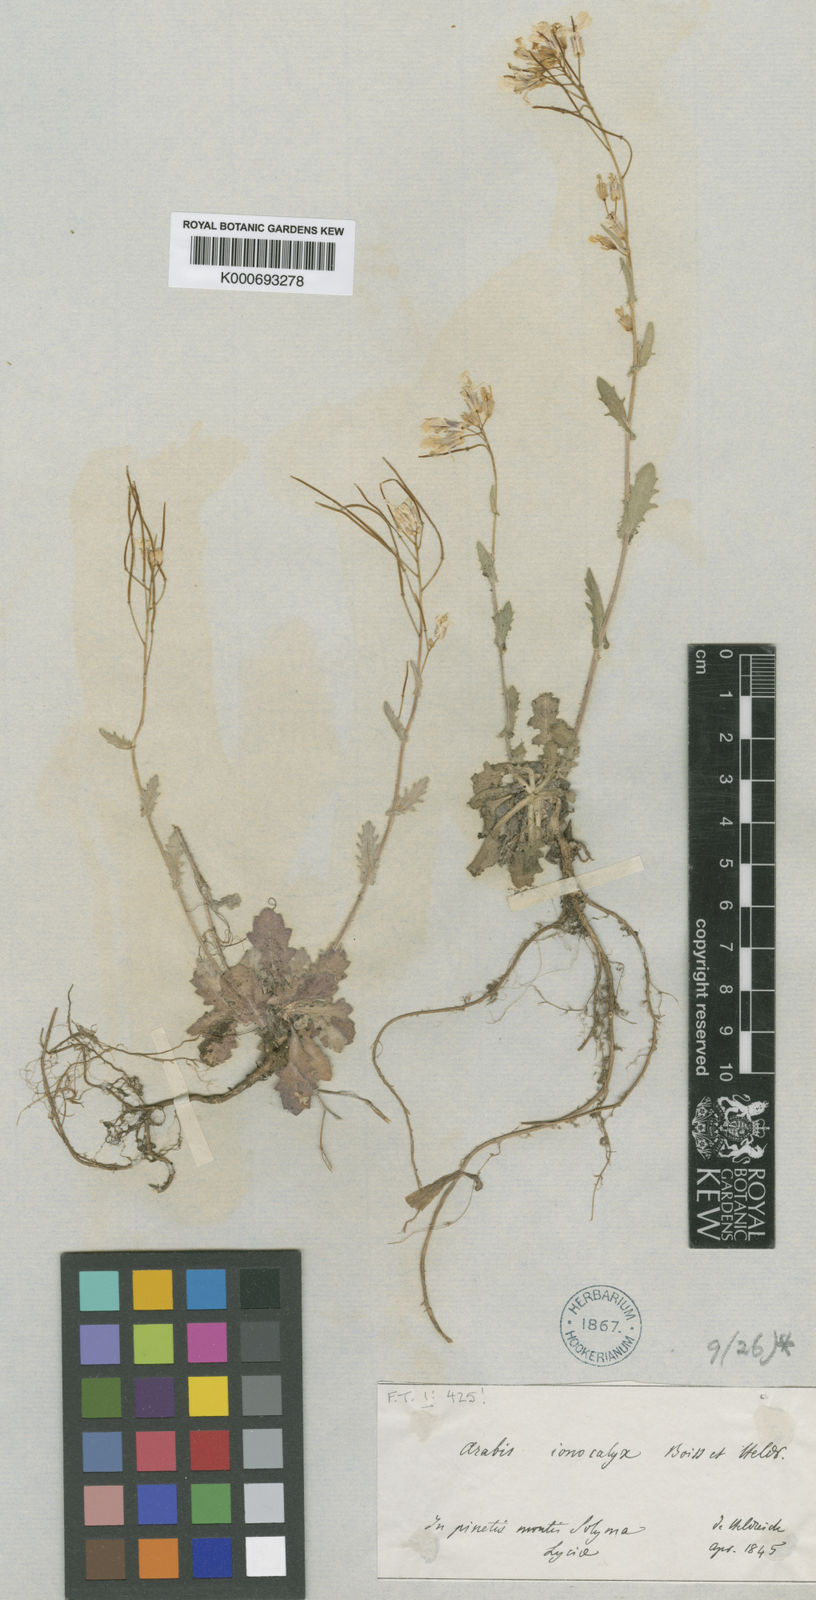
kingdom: Plantae
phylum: Tracheophyta
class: Magnoliopsida
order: Brassicales
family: Brassicaceae
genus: Arabis
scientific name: Arabis ionocalyx
